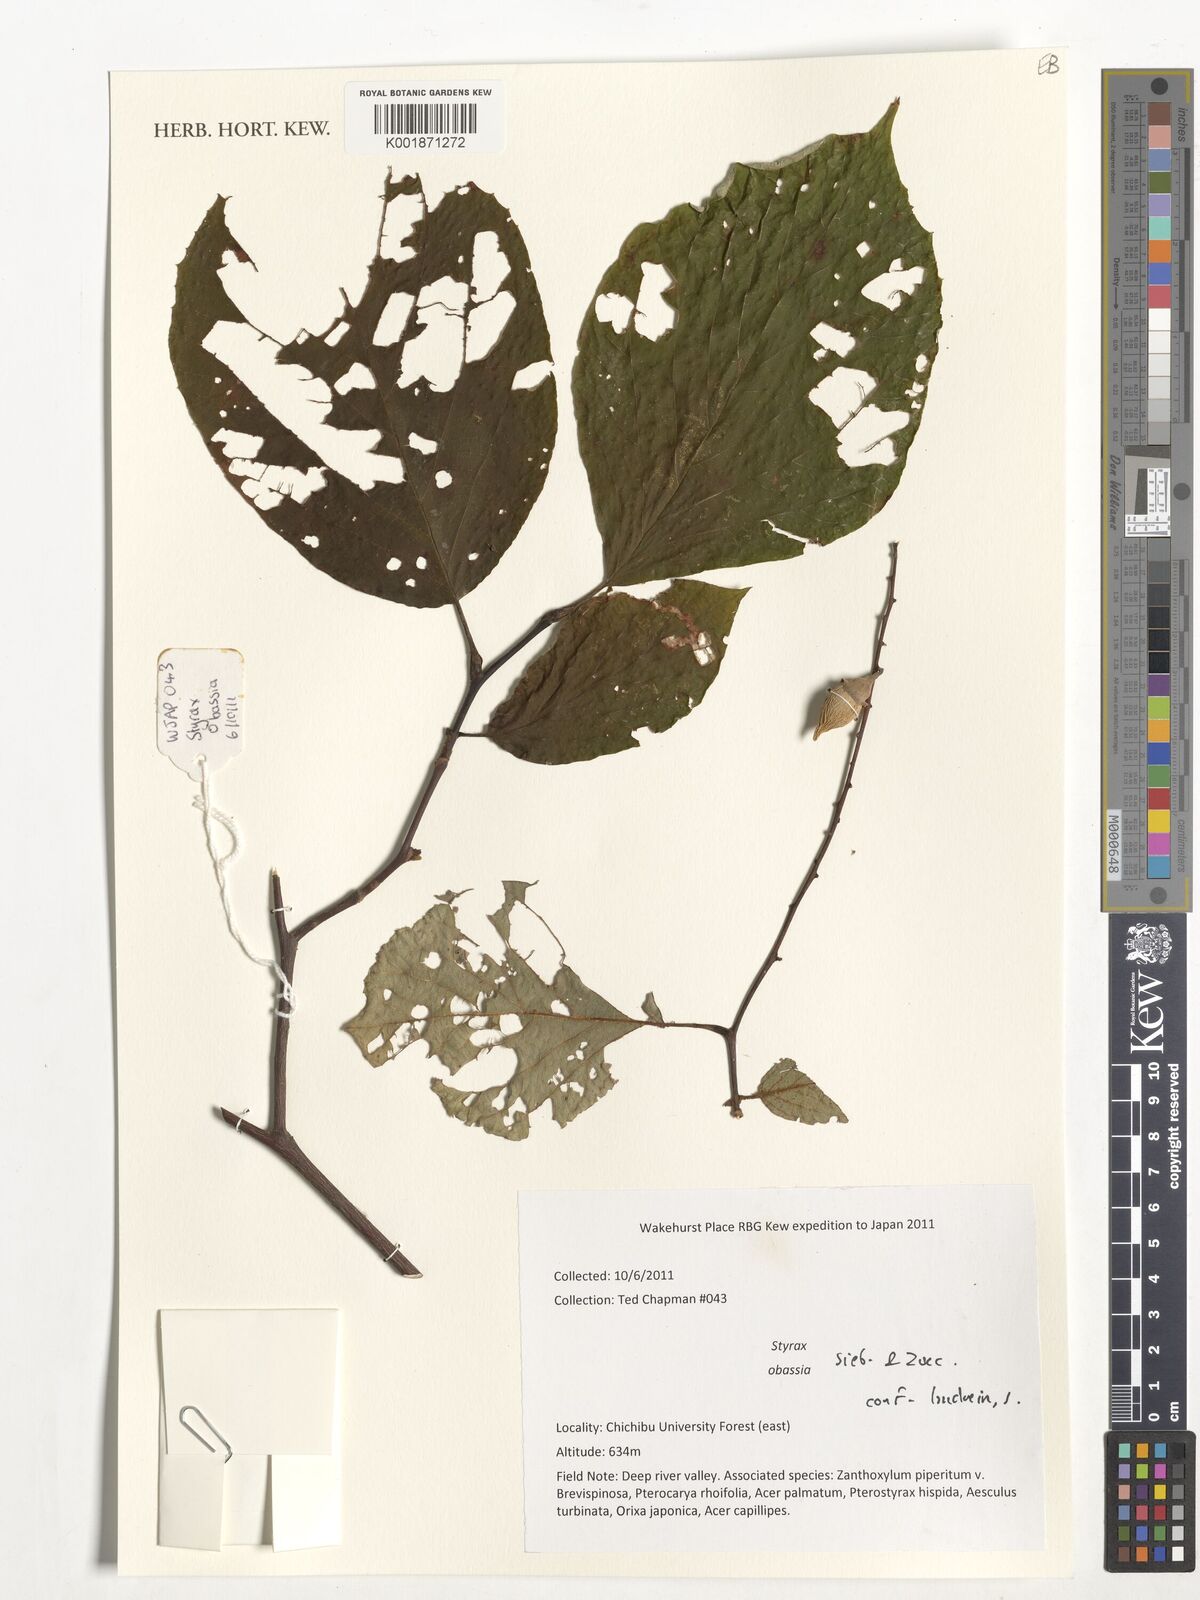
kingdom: Plantae
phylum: Tracheophyta
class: Magnoliopsida
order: Ericales
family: Styracaceae
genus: Styrax
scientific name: Styrax obassia
